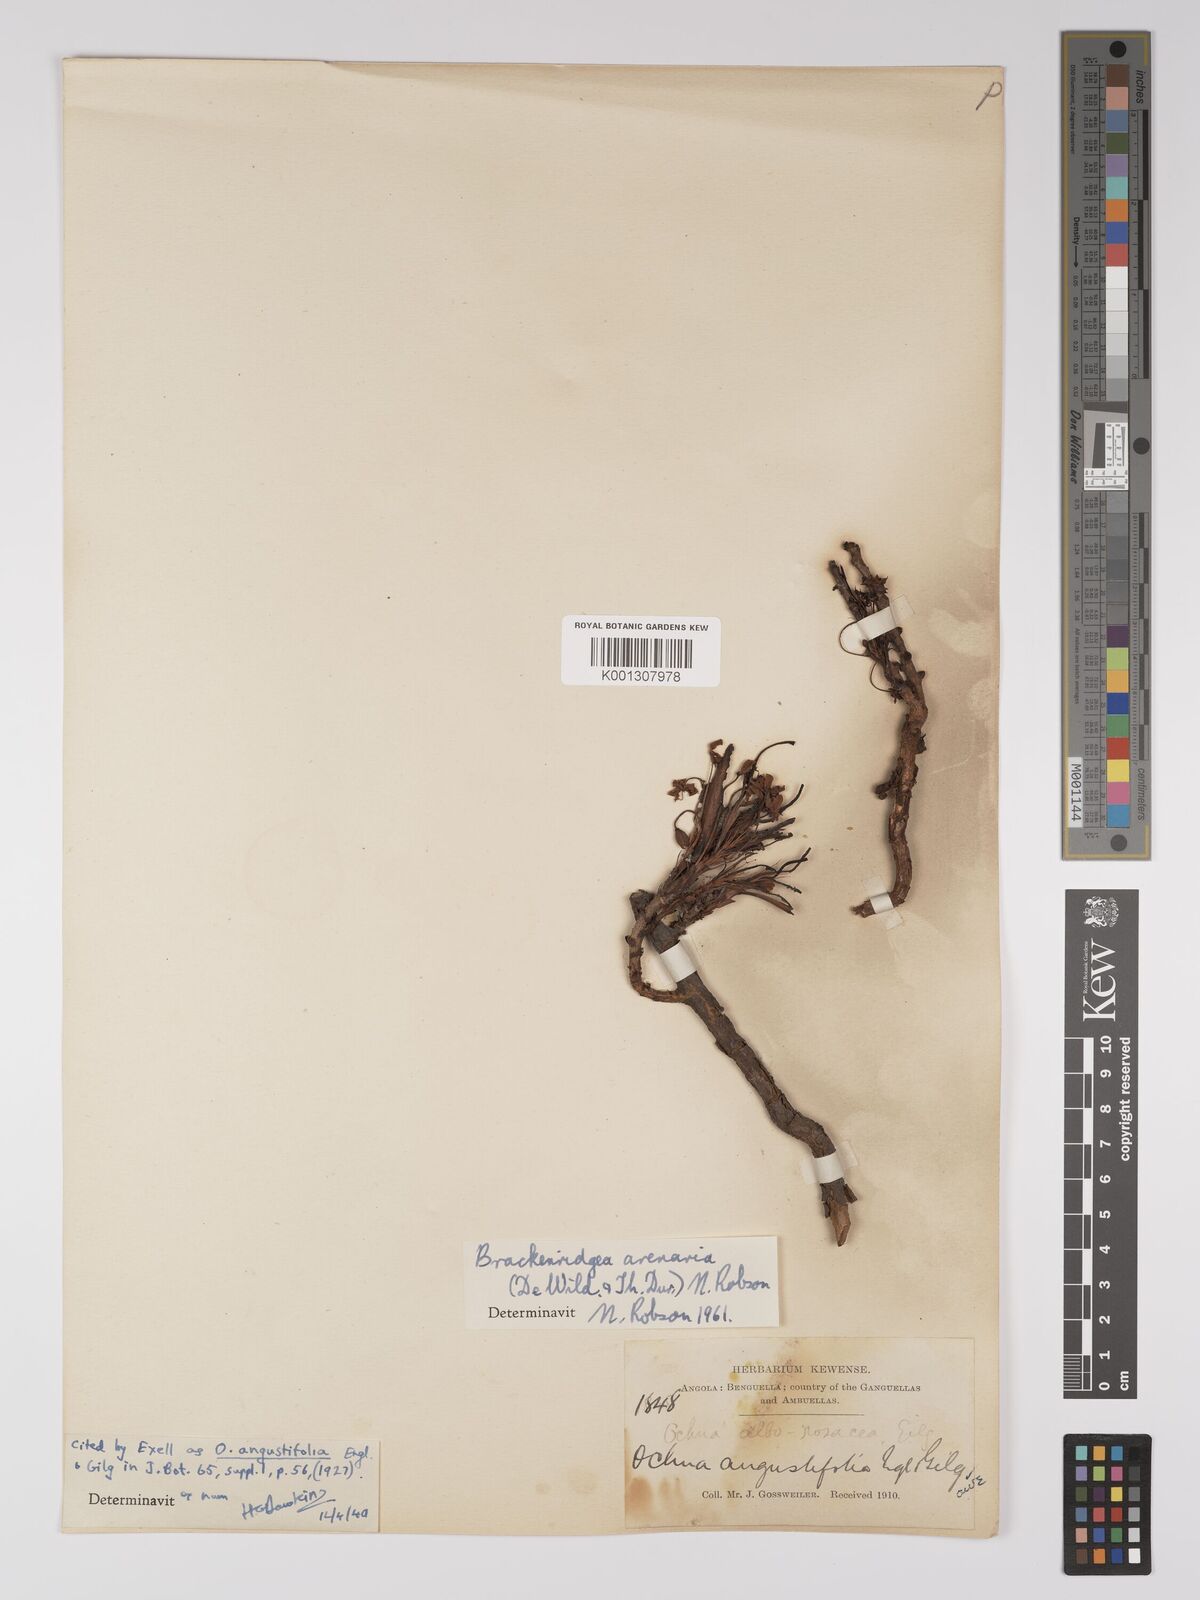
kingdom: Plantae
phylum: Tracheophyta
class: Magnoliopsida
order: Malpighiales
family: Ochnaceae
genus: Brackenridgea
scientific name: Brackenridgea
